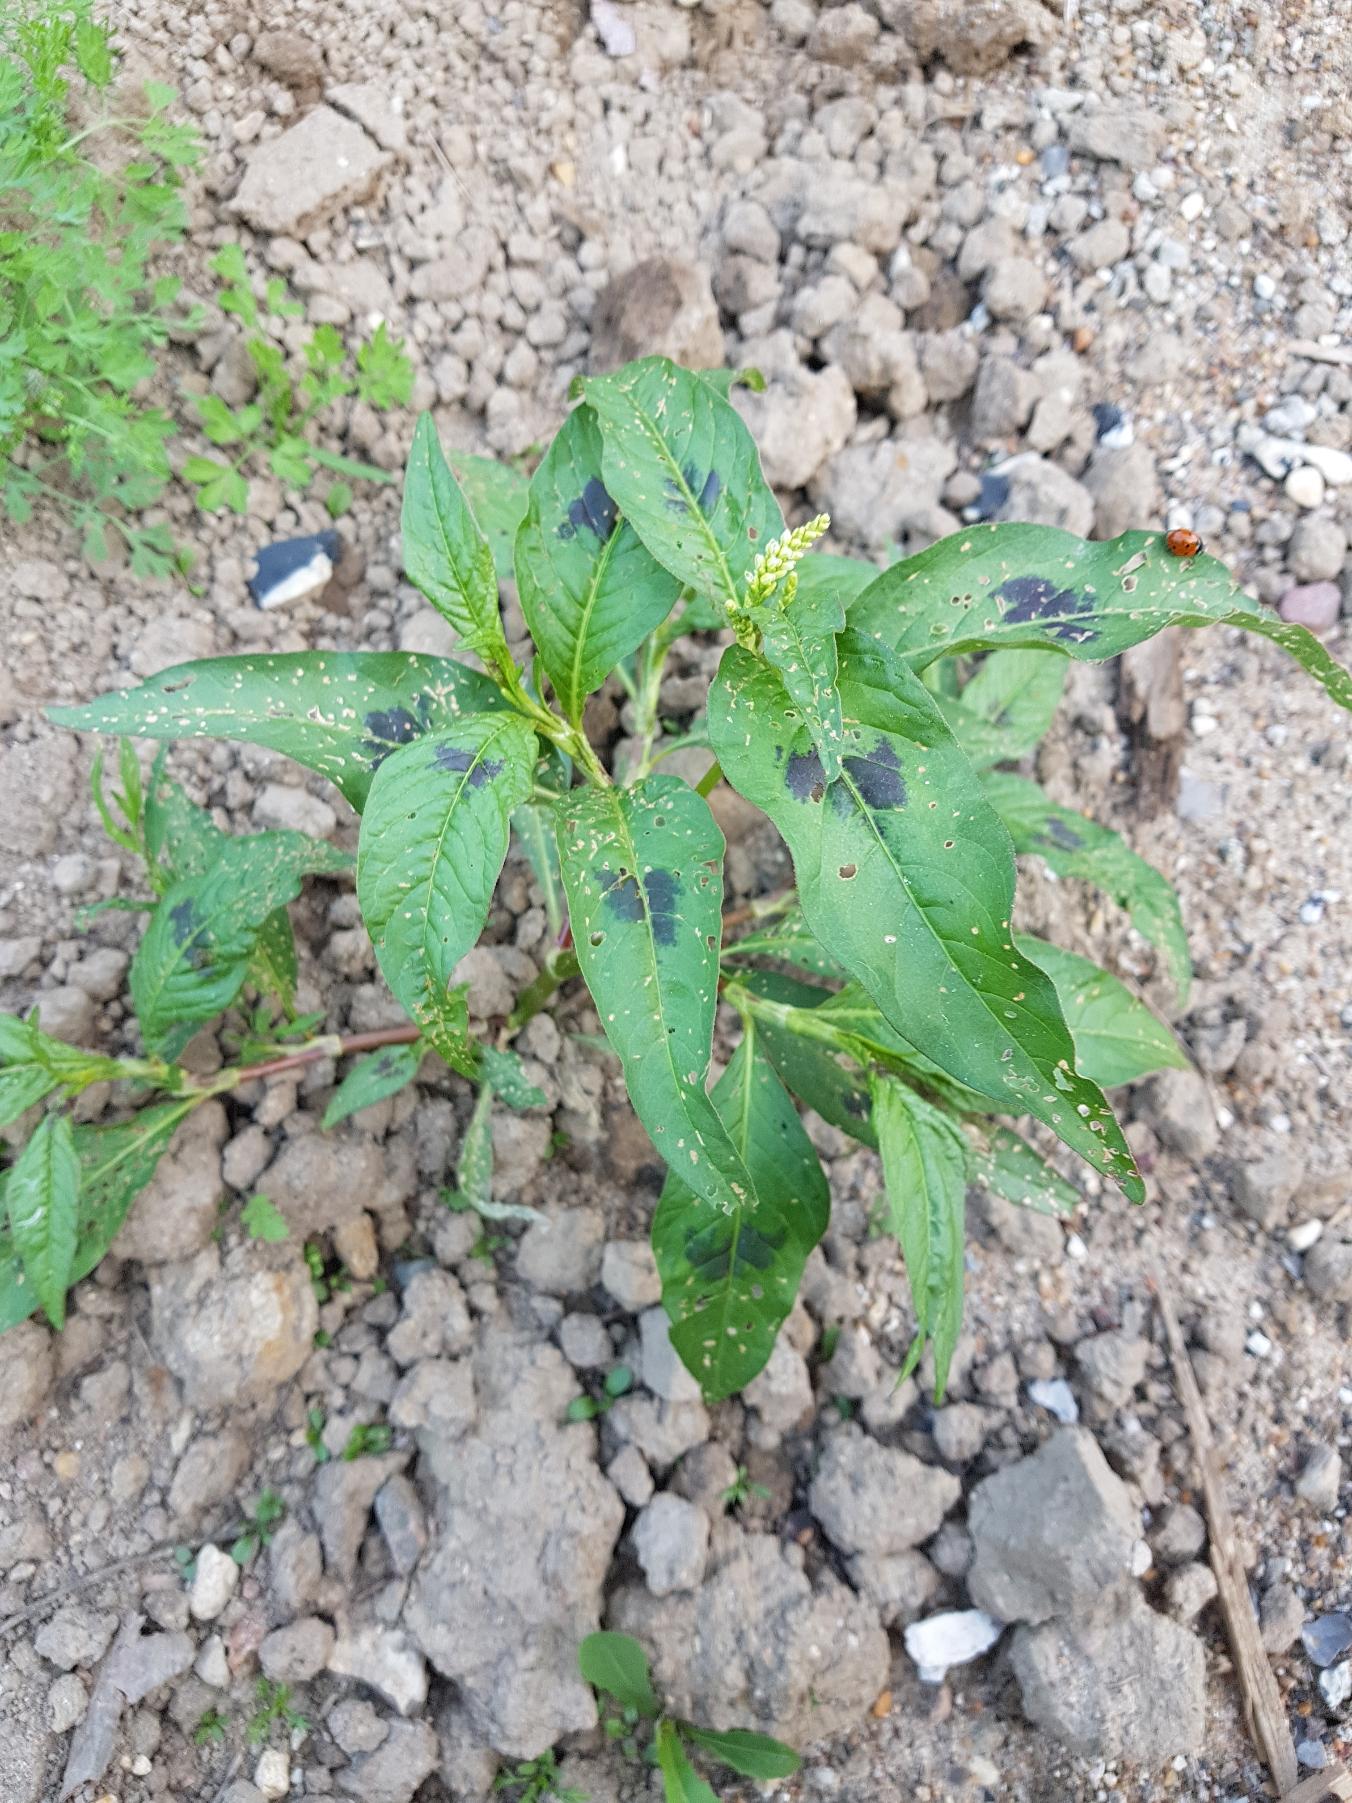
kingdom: Plantae
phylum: Tracheophyta
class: Magnoliopsida
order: Caryophyllales
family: Polygonaceae
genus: Persicaria
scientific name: Persicaria lapathifolia
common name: Knudet pileurt
